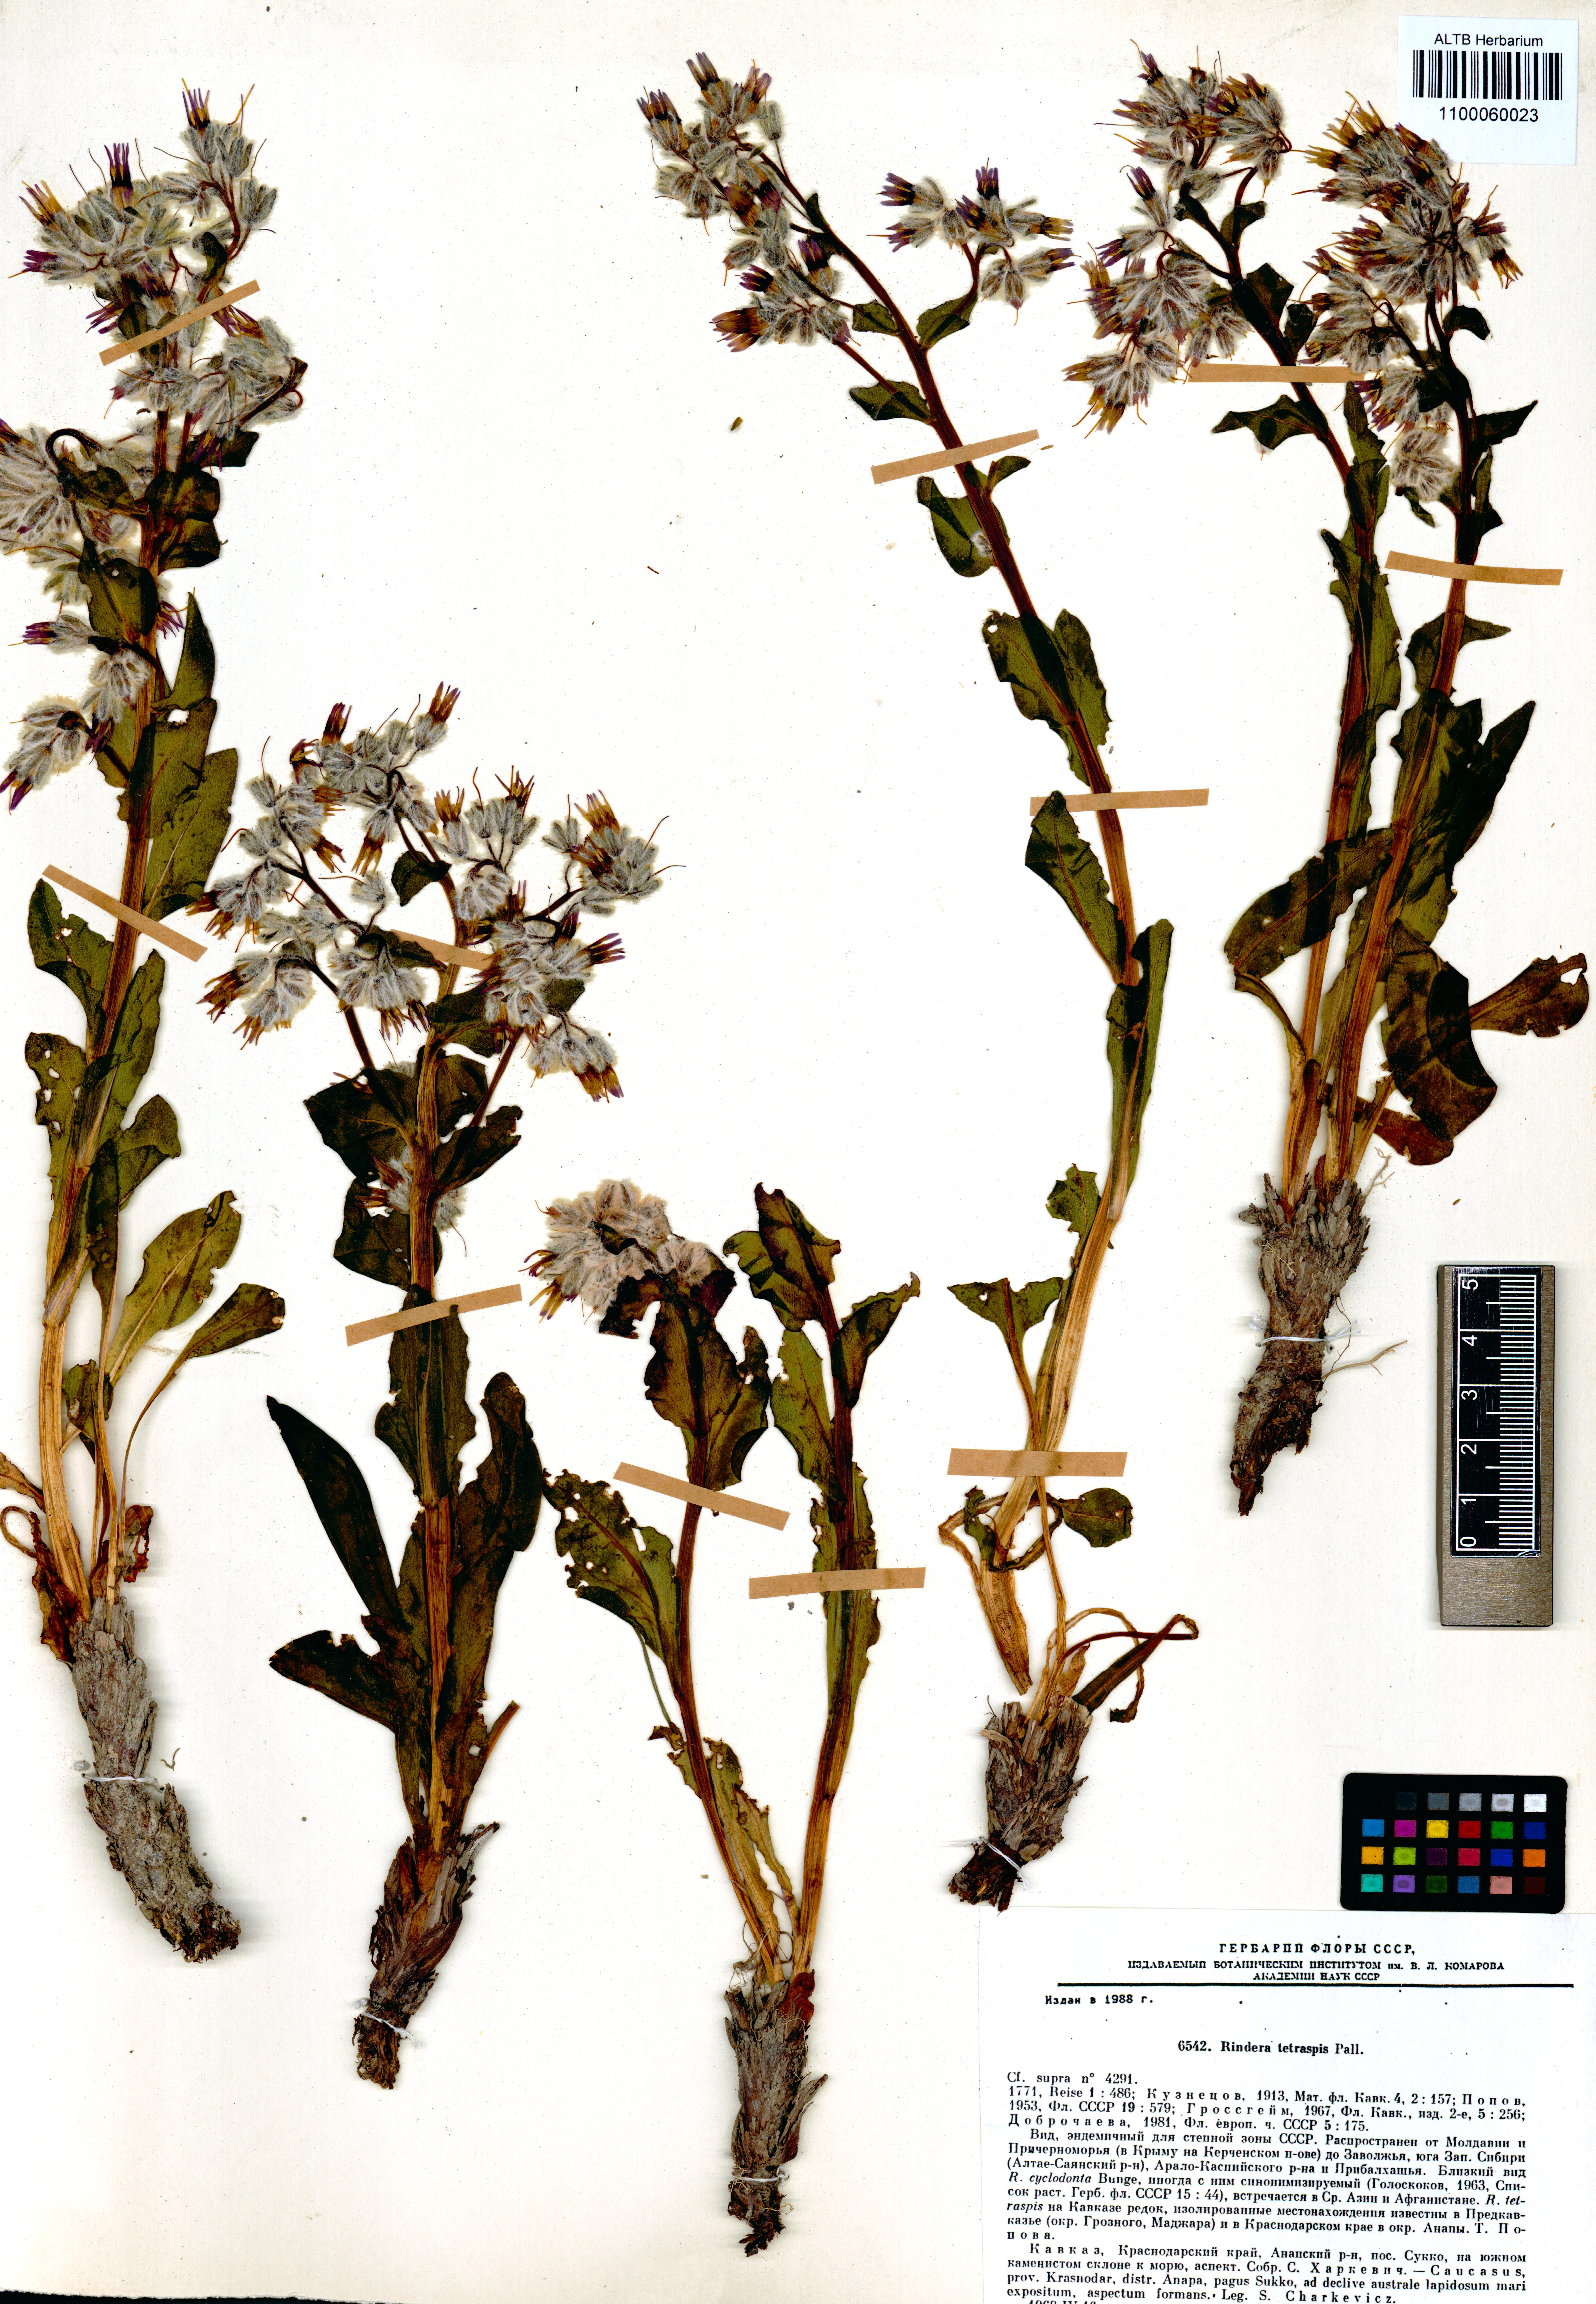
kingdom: Plantae
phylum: Tracheophyta
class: Magnoliopsida
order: Boraginales
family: Boraginaceae
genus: Rindera
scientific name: Rindera tetraspis
